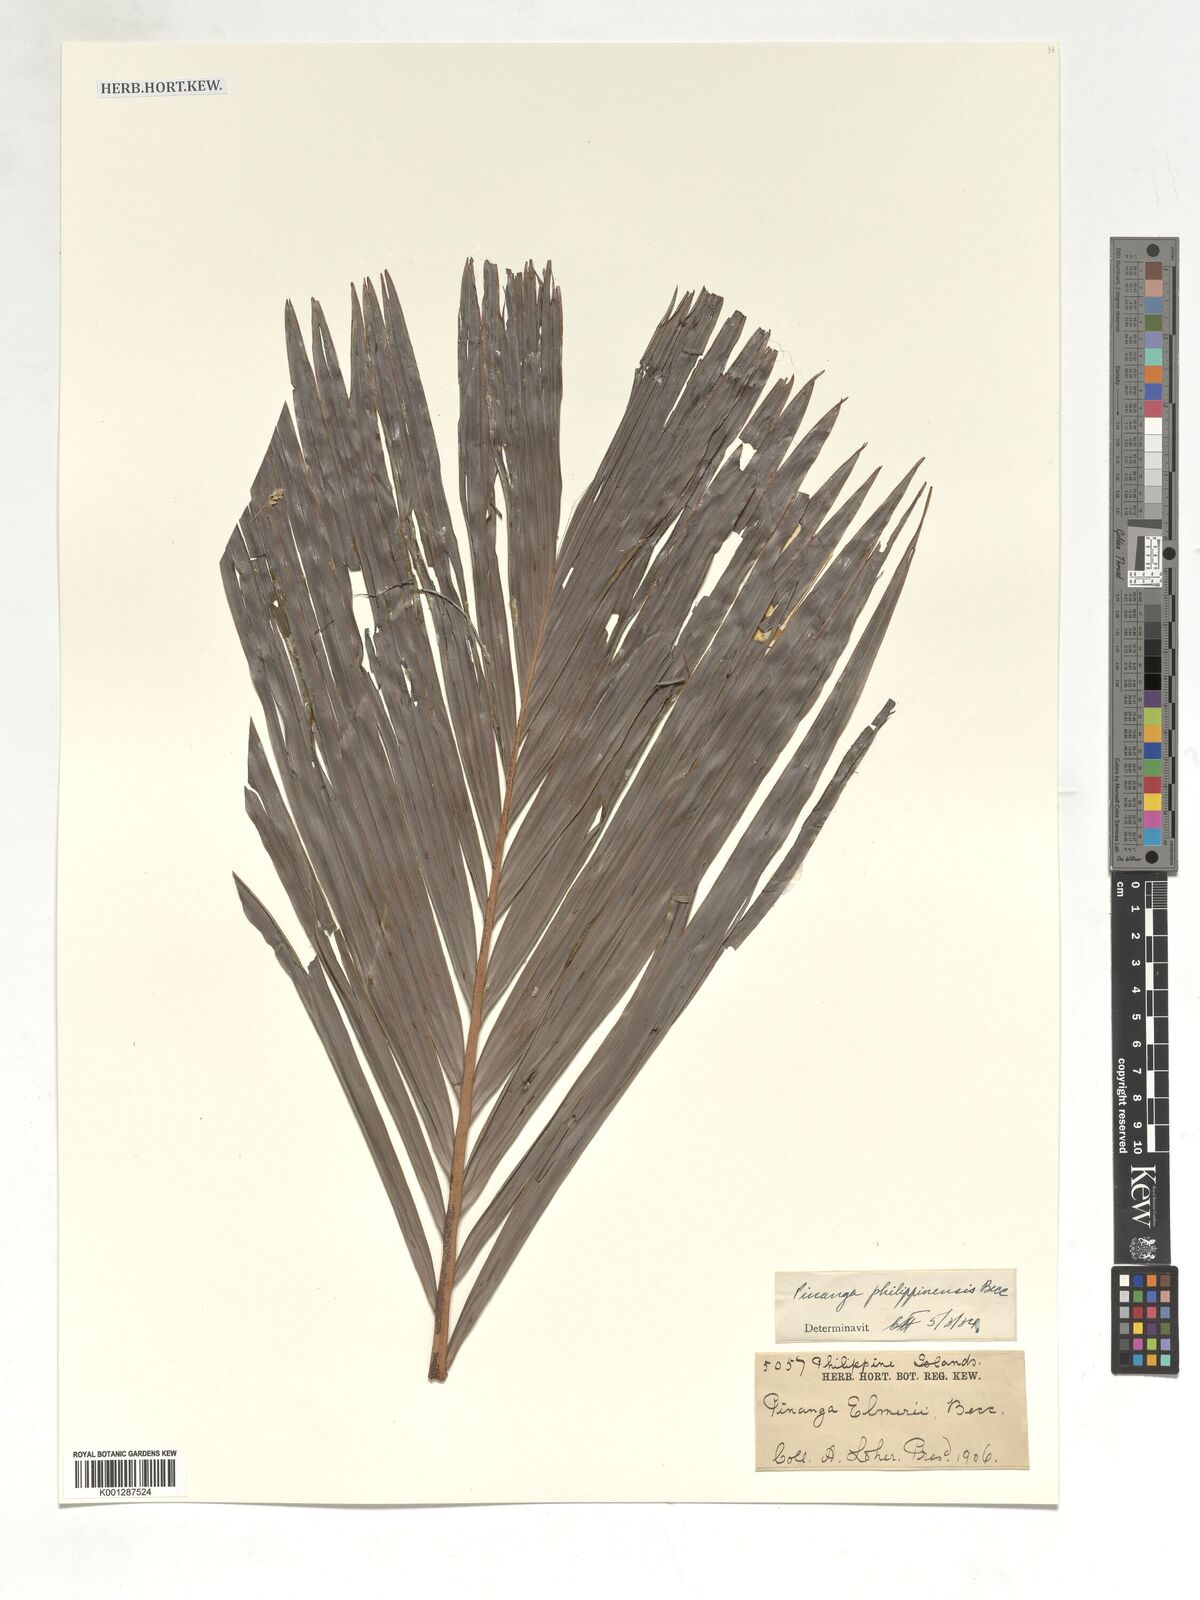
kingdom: Plantae
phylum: Tracheophyta
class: Liliopsida
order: Arecales
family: Arecaceae
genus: Pinanga
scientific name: Pinanga philippinensis
